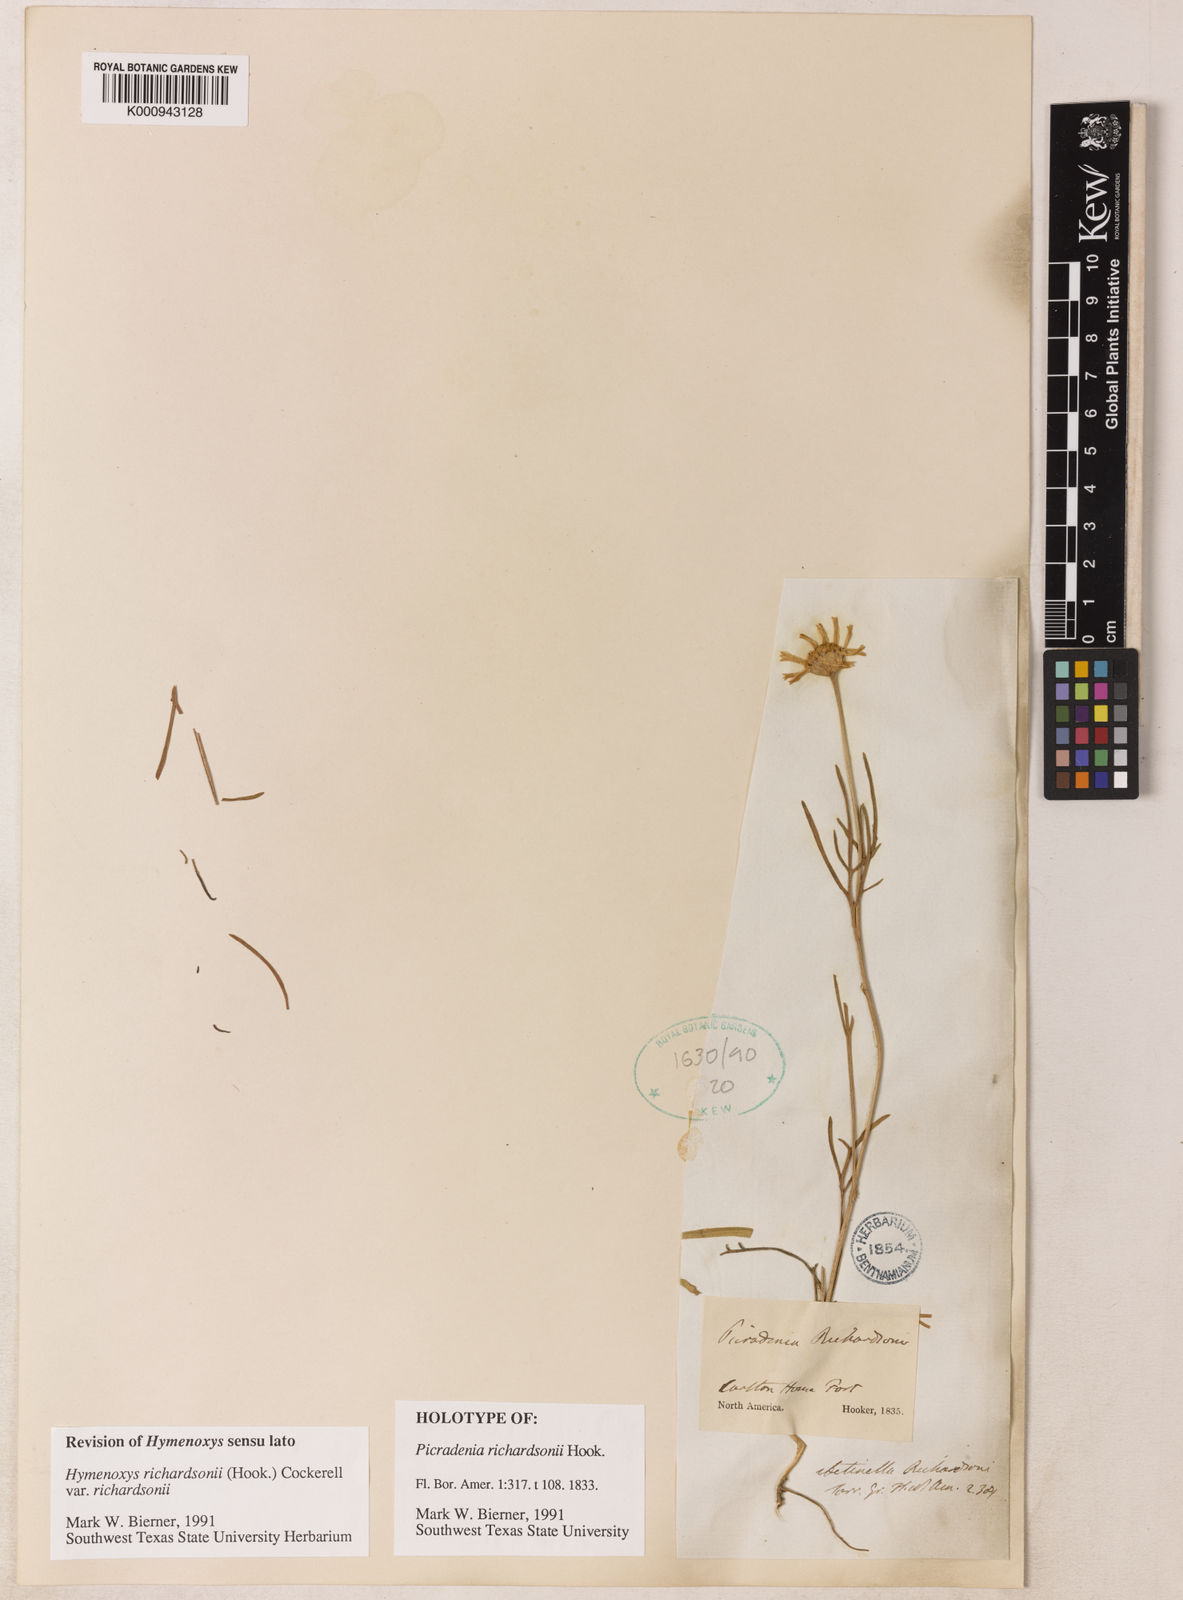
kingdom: Plantae
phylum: Tracheophyta
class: Magnoliopsida
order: Asterales
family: Asteraceae
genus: Hymenoxys
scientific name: Hymenoxys richardsonii
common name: Pingue rubberweed
